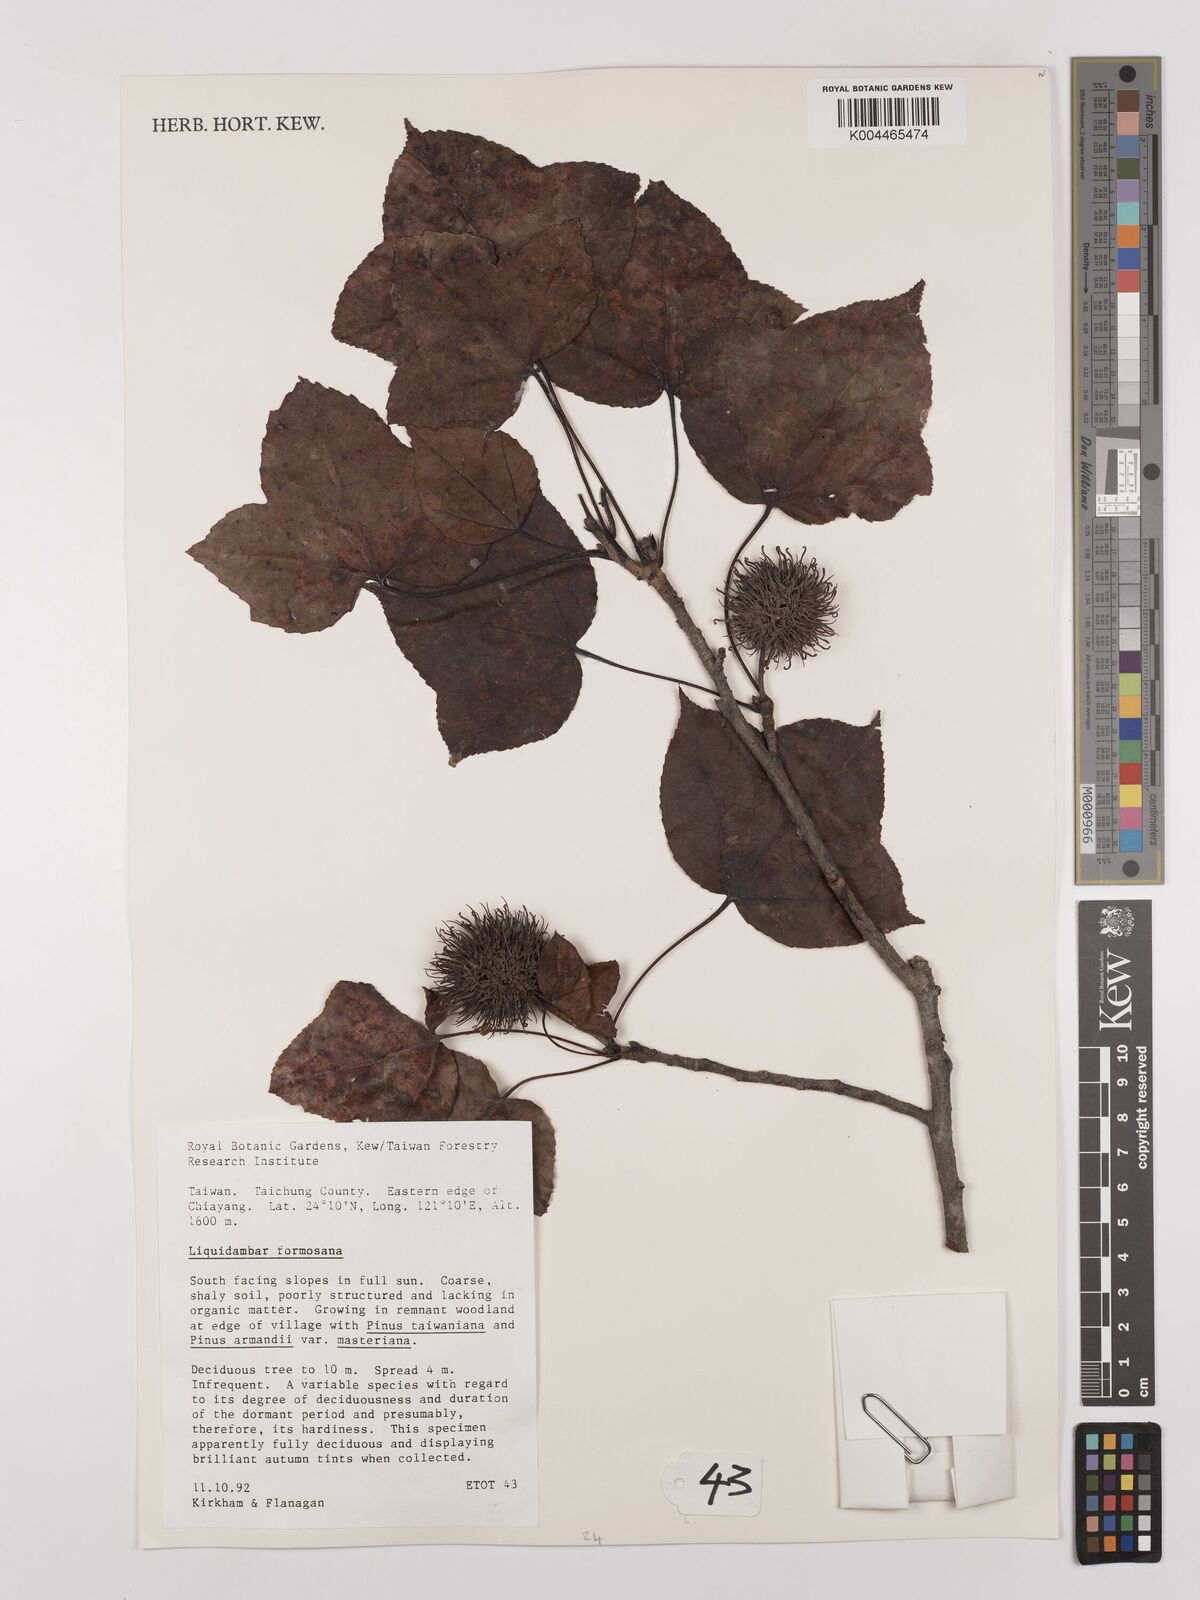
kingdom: Plantae
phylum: Tracheophyta
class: Magnoliopsida
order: Saxifragales
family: Altingiaceae
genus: Liquidambar
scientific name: Liquidambar formosana
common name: Chinese sweet gum
